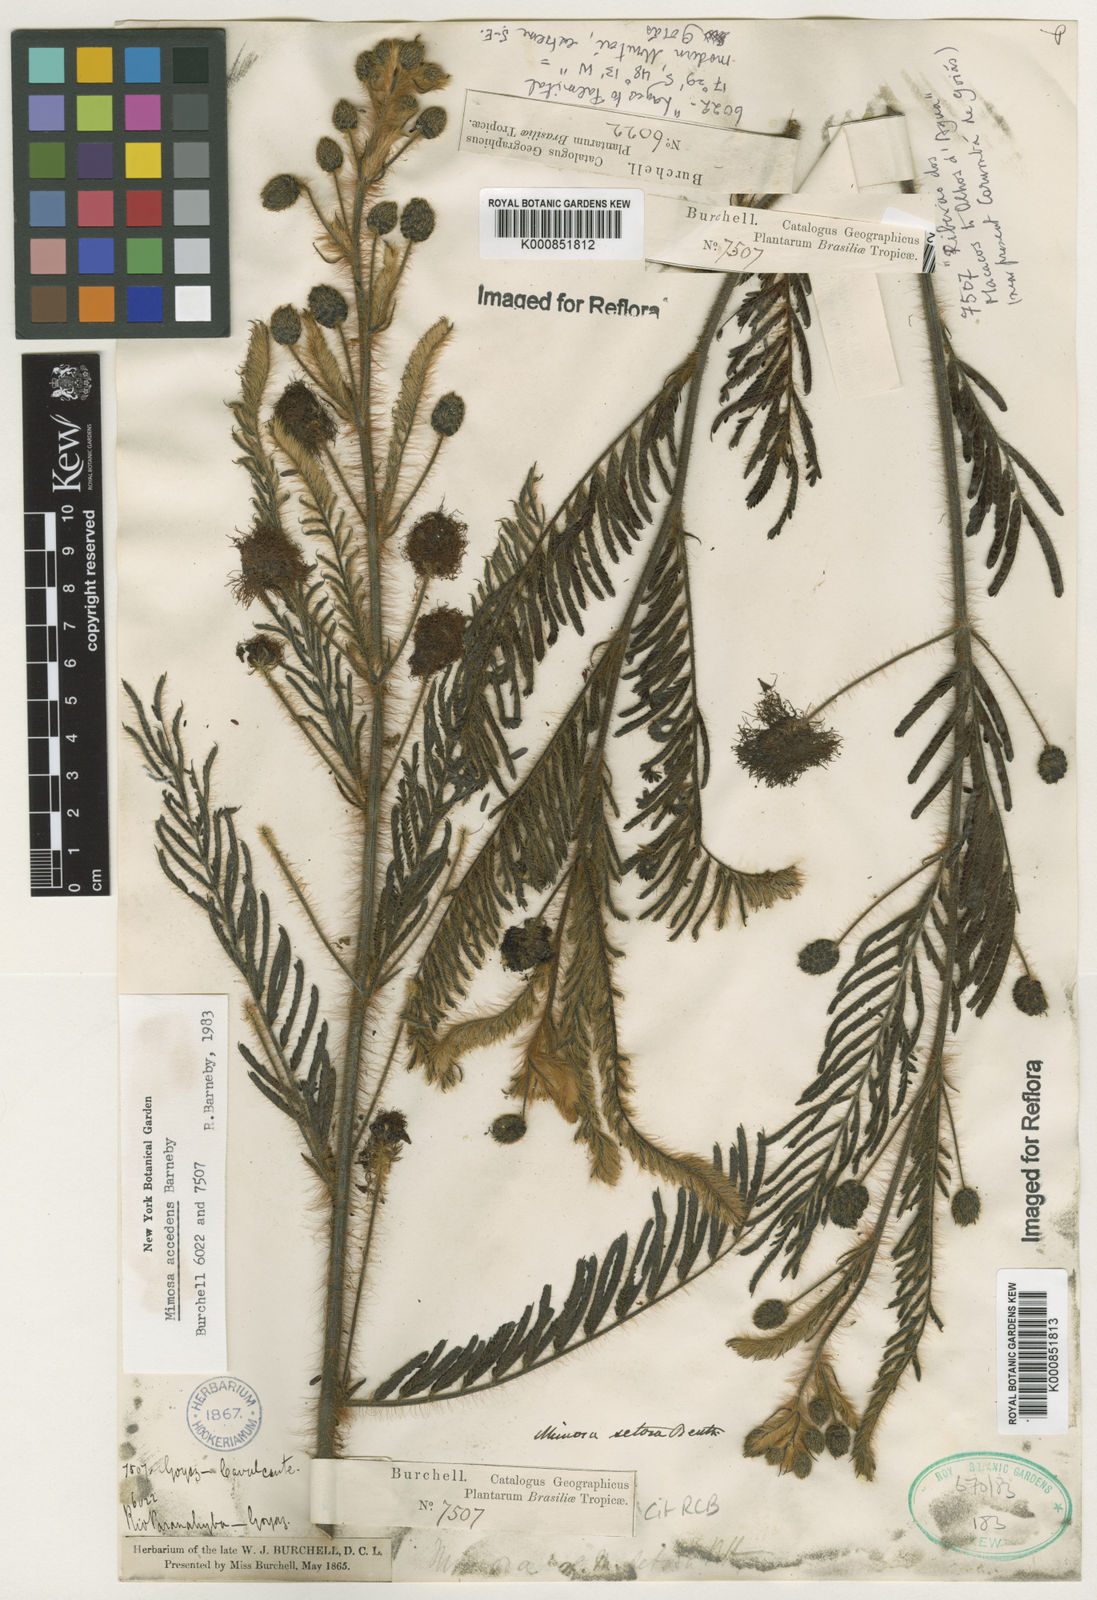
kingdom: Plantae
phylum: Tracheophyta
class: Magnoliopsida
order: Fabales
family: Fabaceae
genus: Mimosa
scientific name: Mimosa accedens
